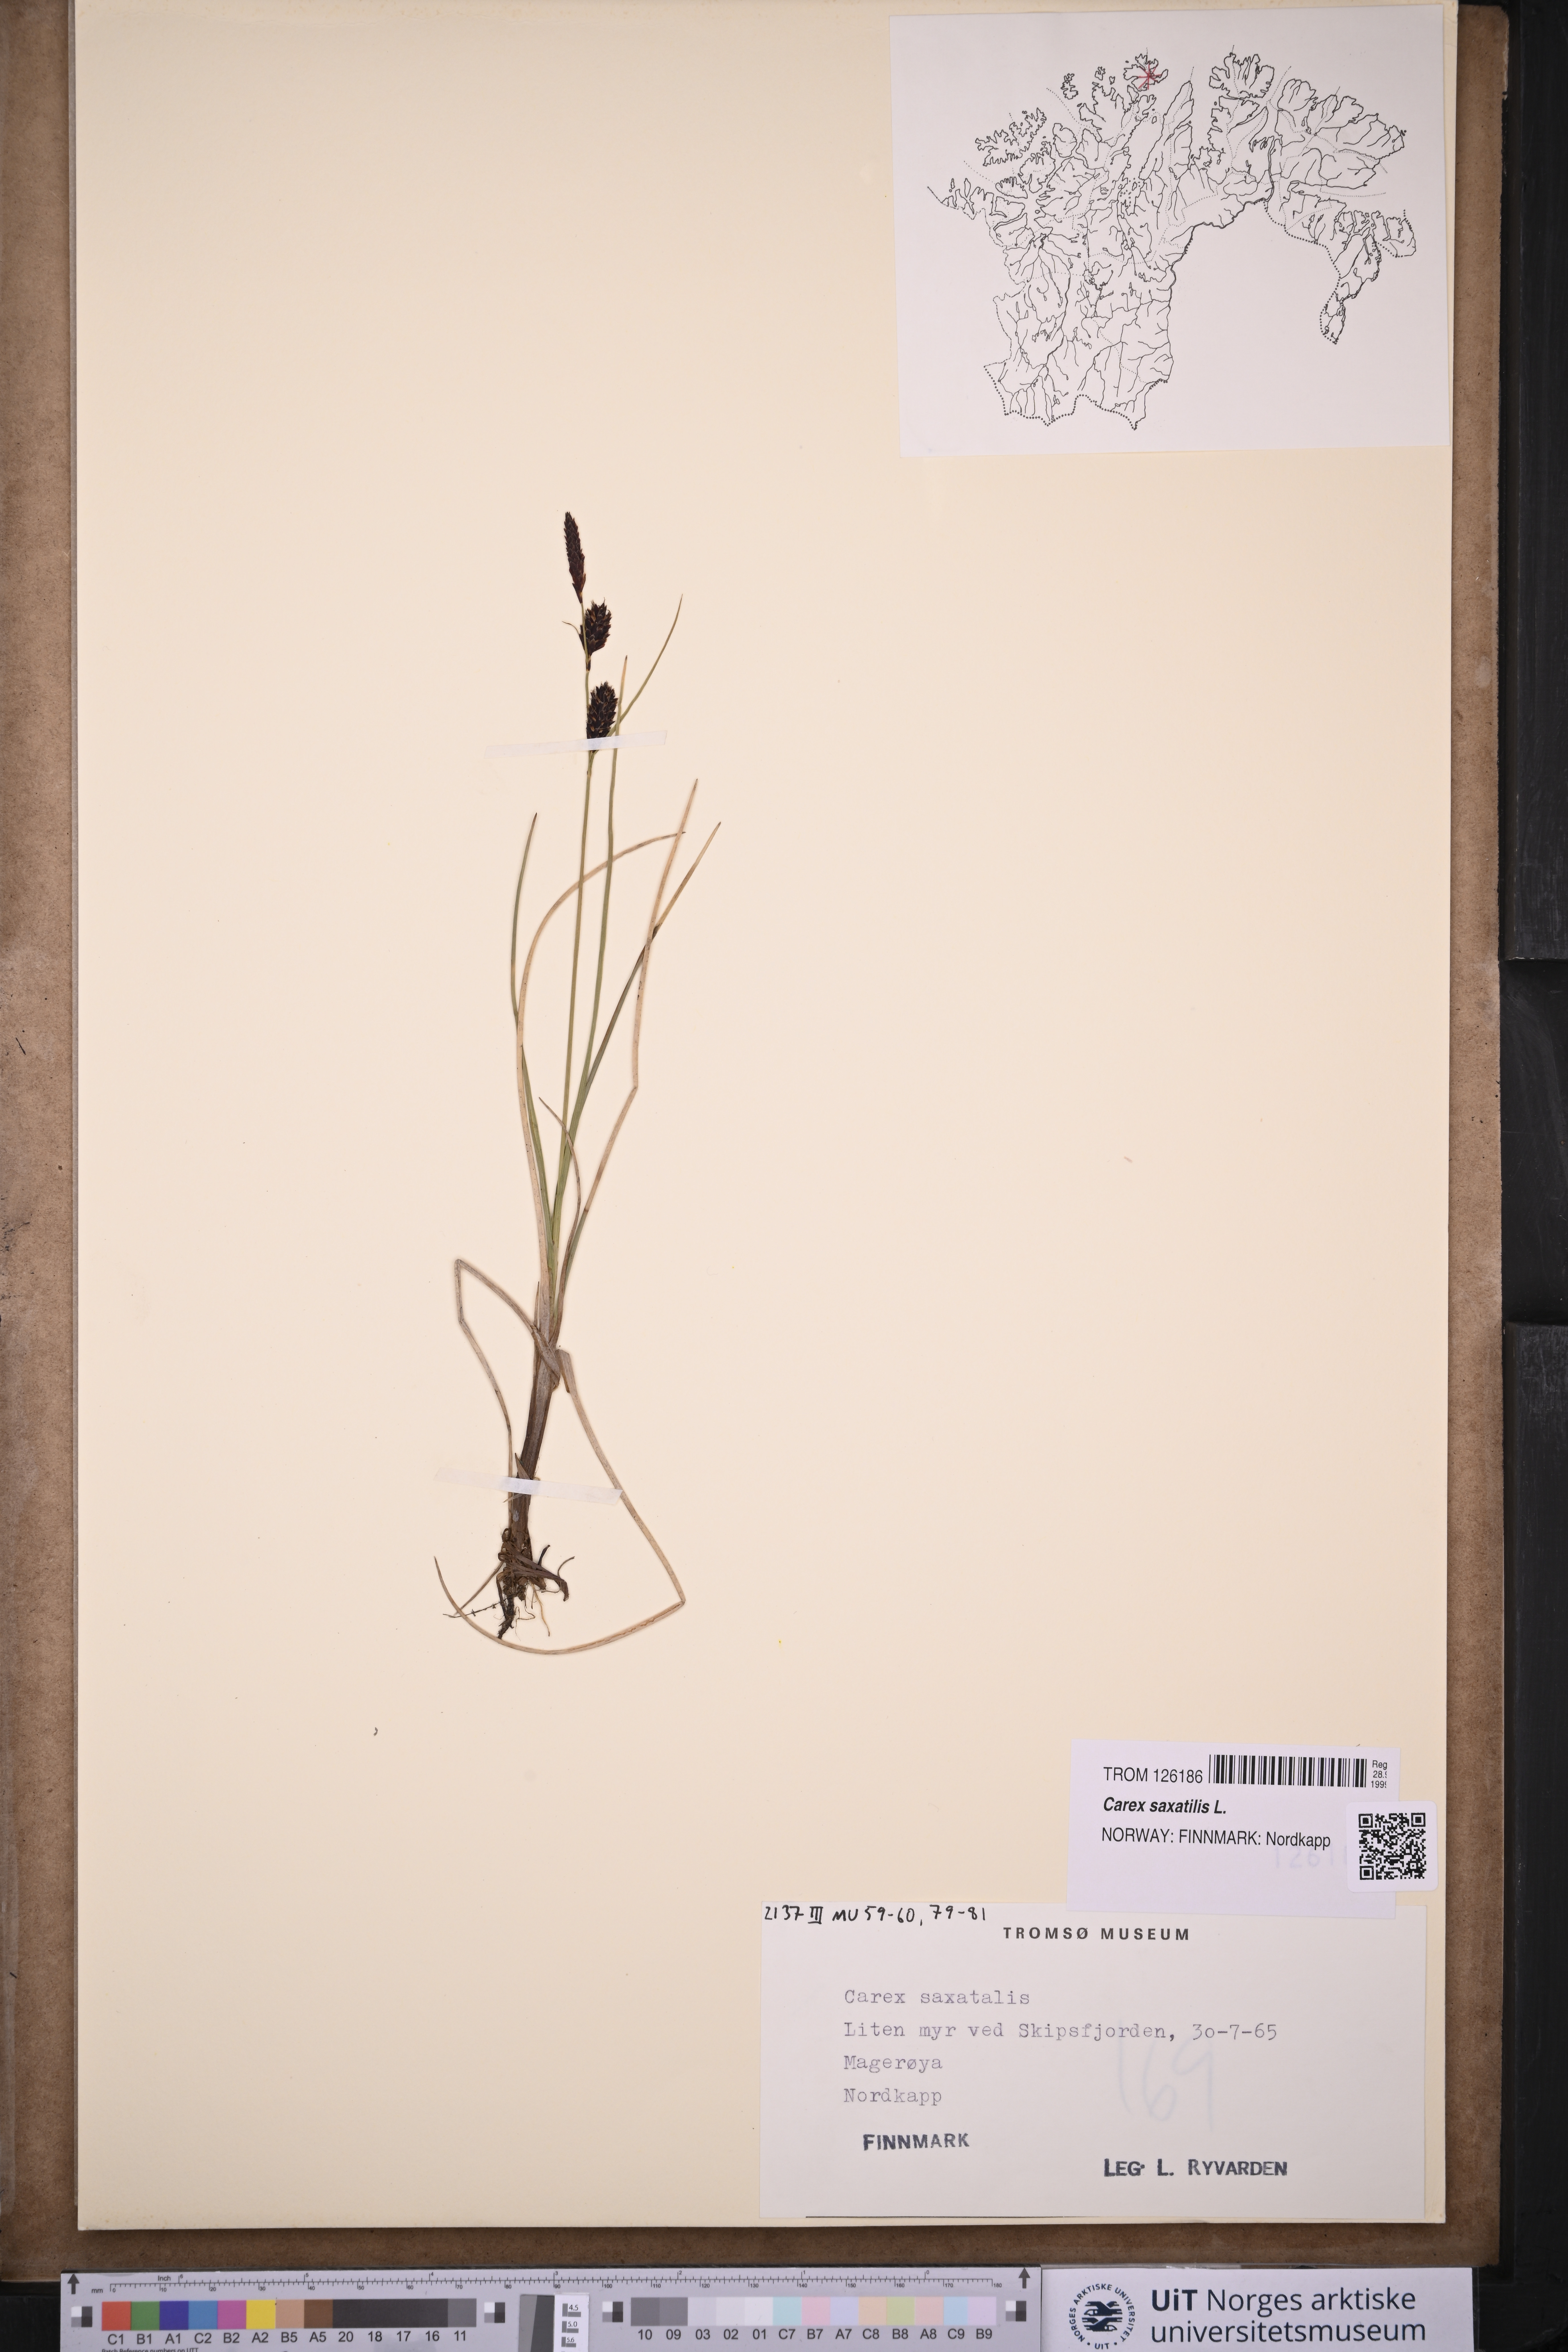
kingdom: Plantae
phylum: Tracheophyta
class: Liliopsida
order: Poales
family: Cyperaceae
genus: Carex
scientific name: Carex saxatilis
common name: Russet sedge
